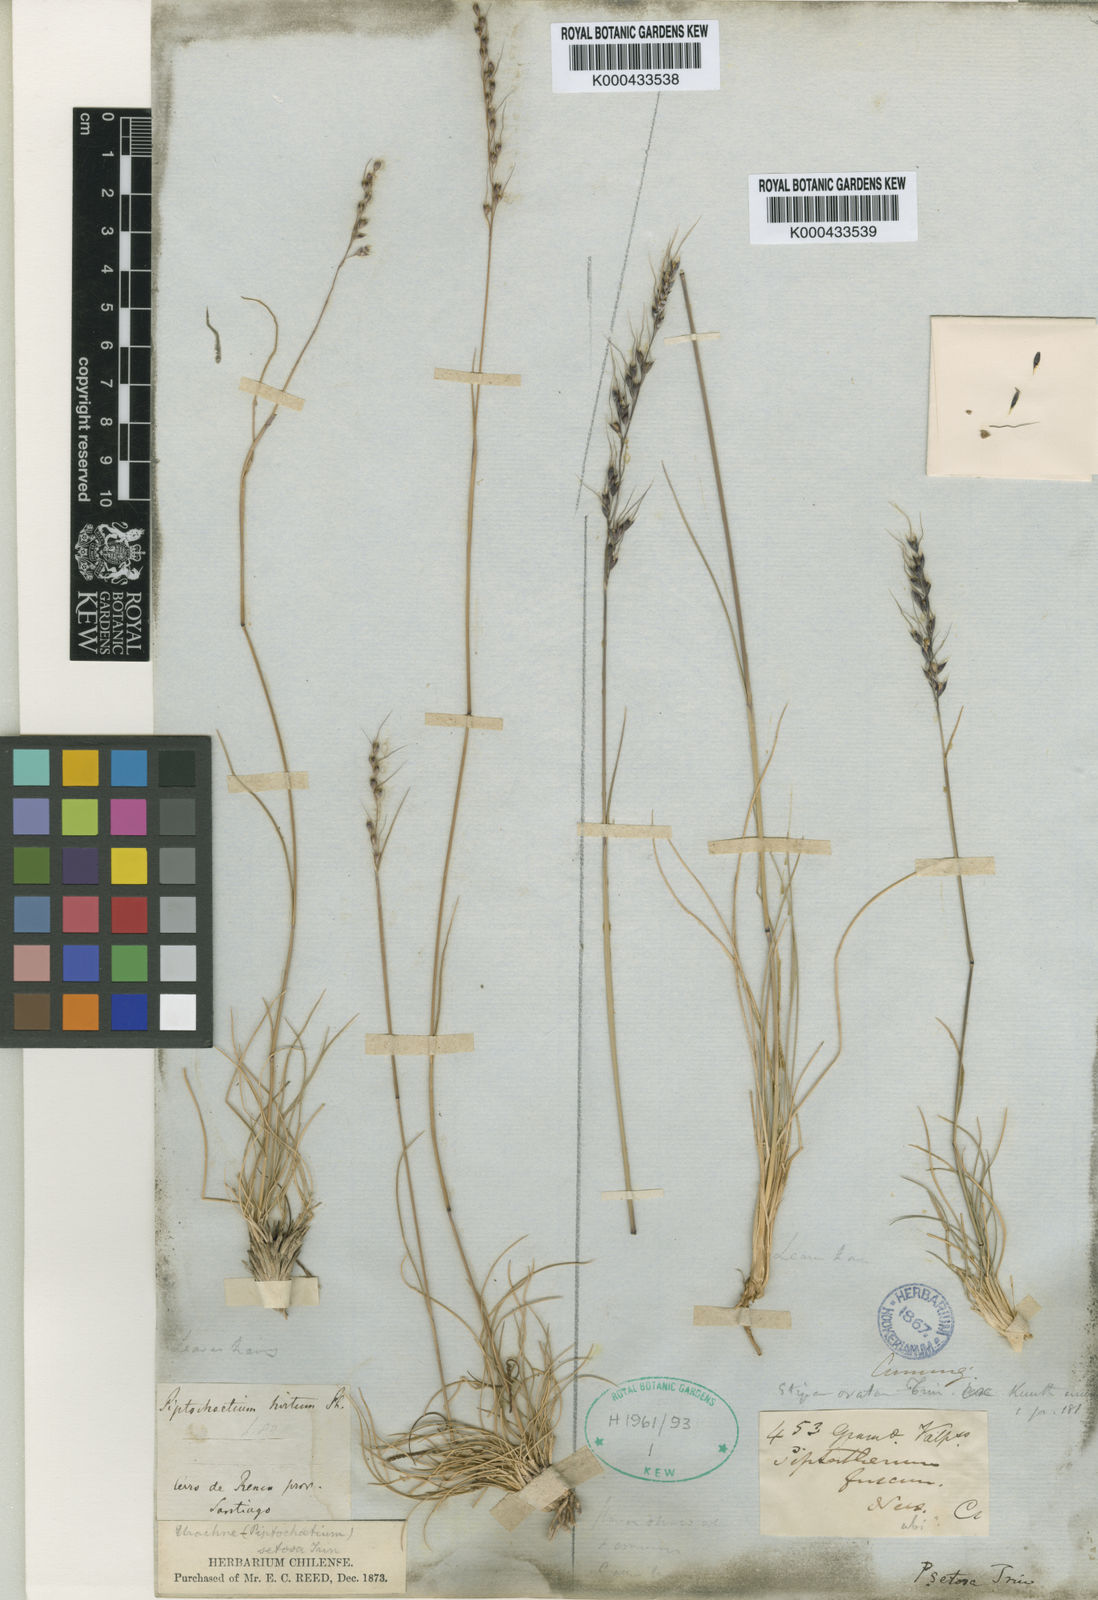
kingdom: Plantae
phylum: Tracheophyta
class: Liliopsida
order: Poales
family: Poaceae
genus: Piptochaetium
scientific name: Piptochaetium hirtum
